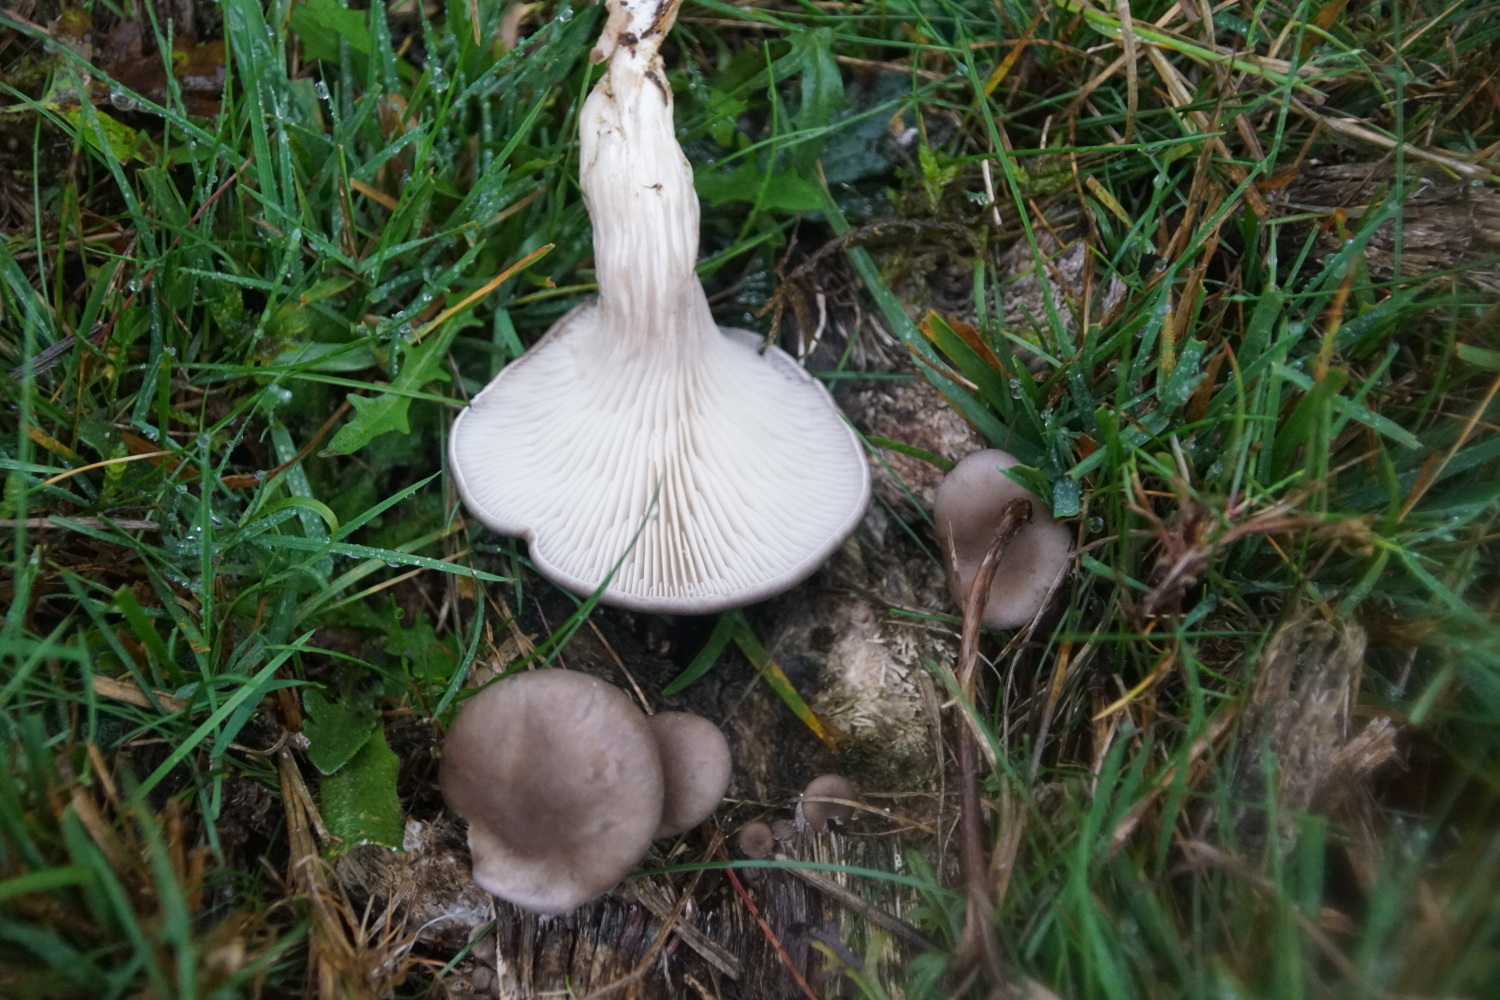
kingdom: Fungi
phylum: Basidiomycota
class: Agaricomycetes
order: Agaricales
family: Pleurotaceae
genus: Pleurotus
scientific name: Pleurotus ostreatus
